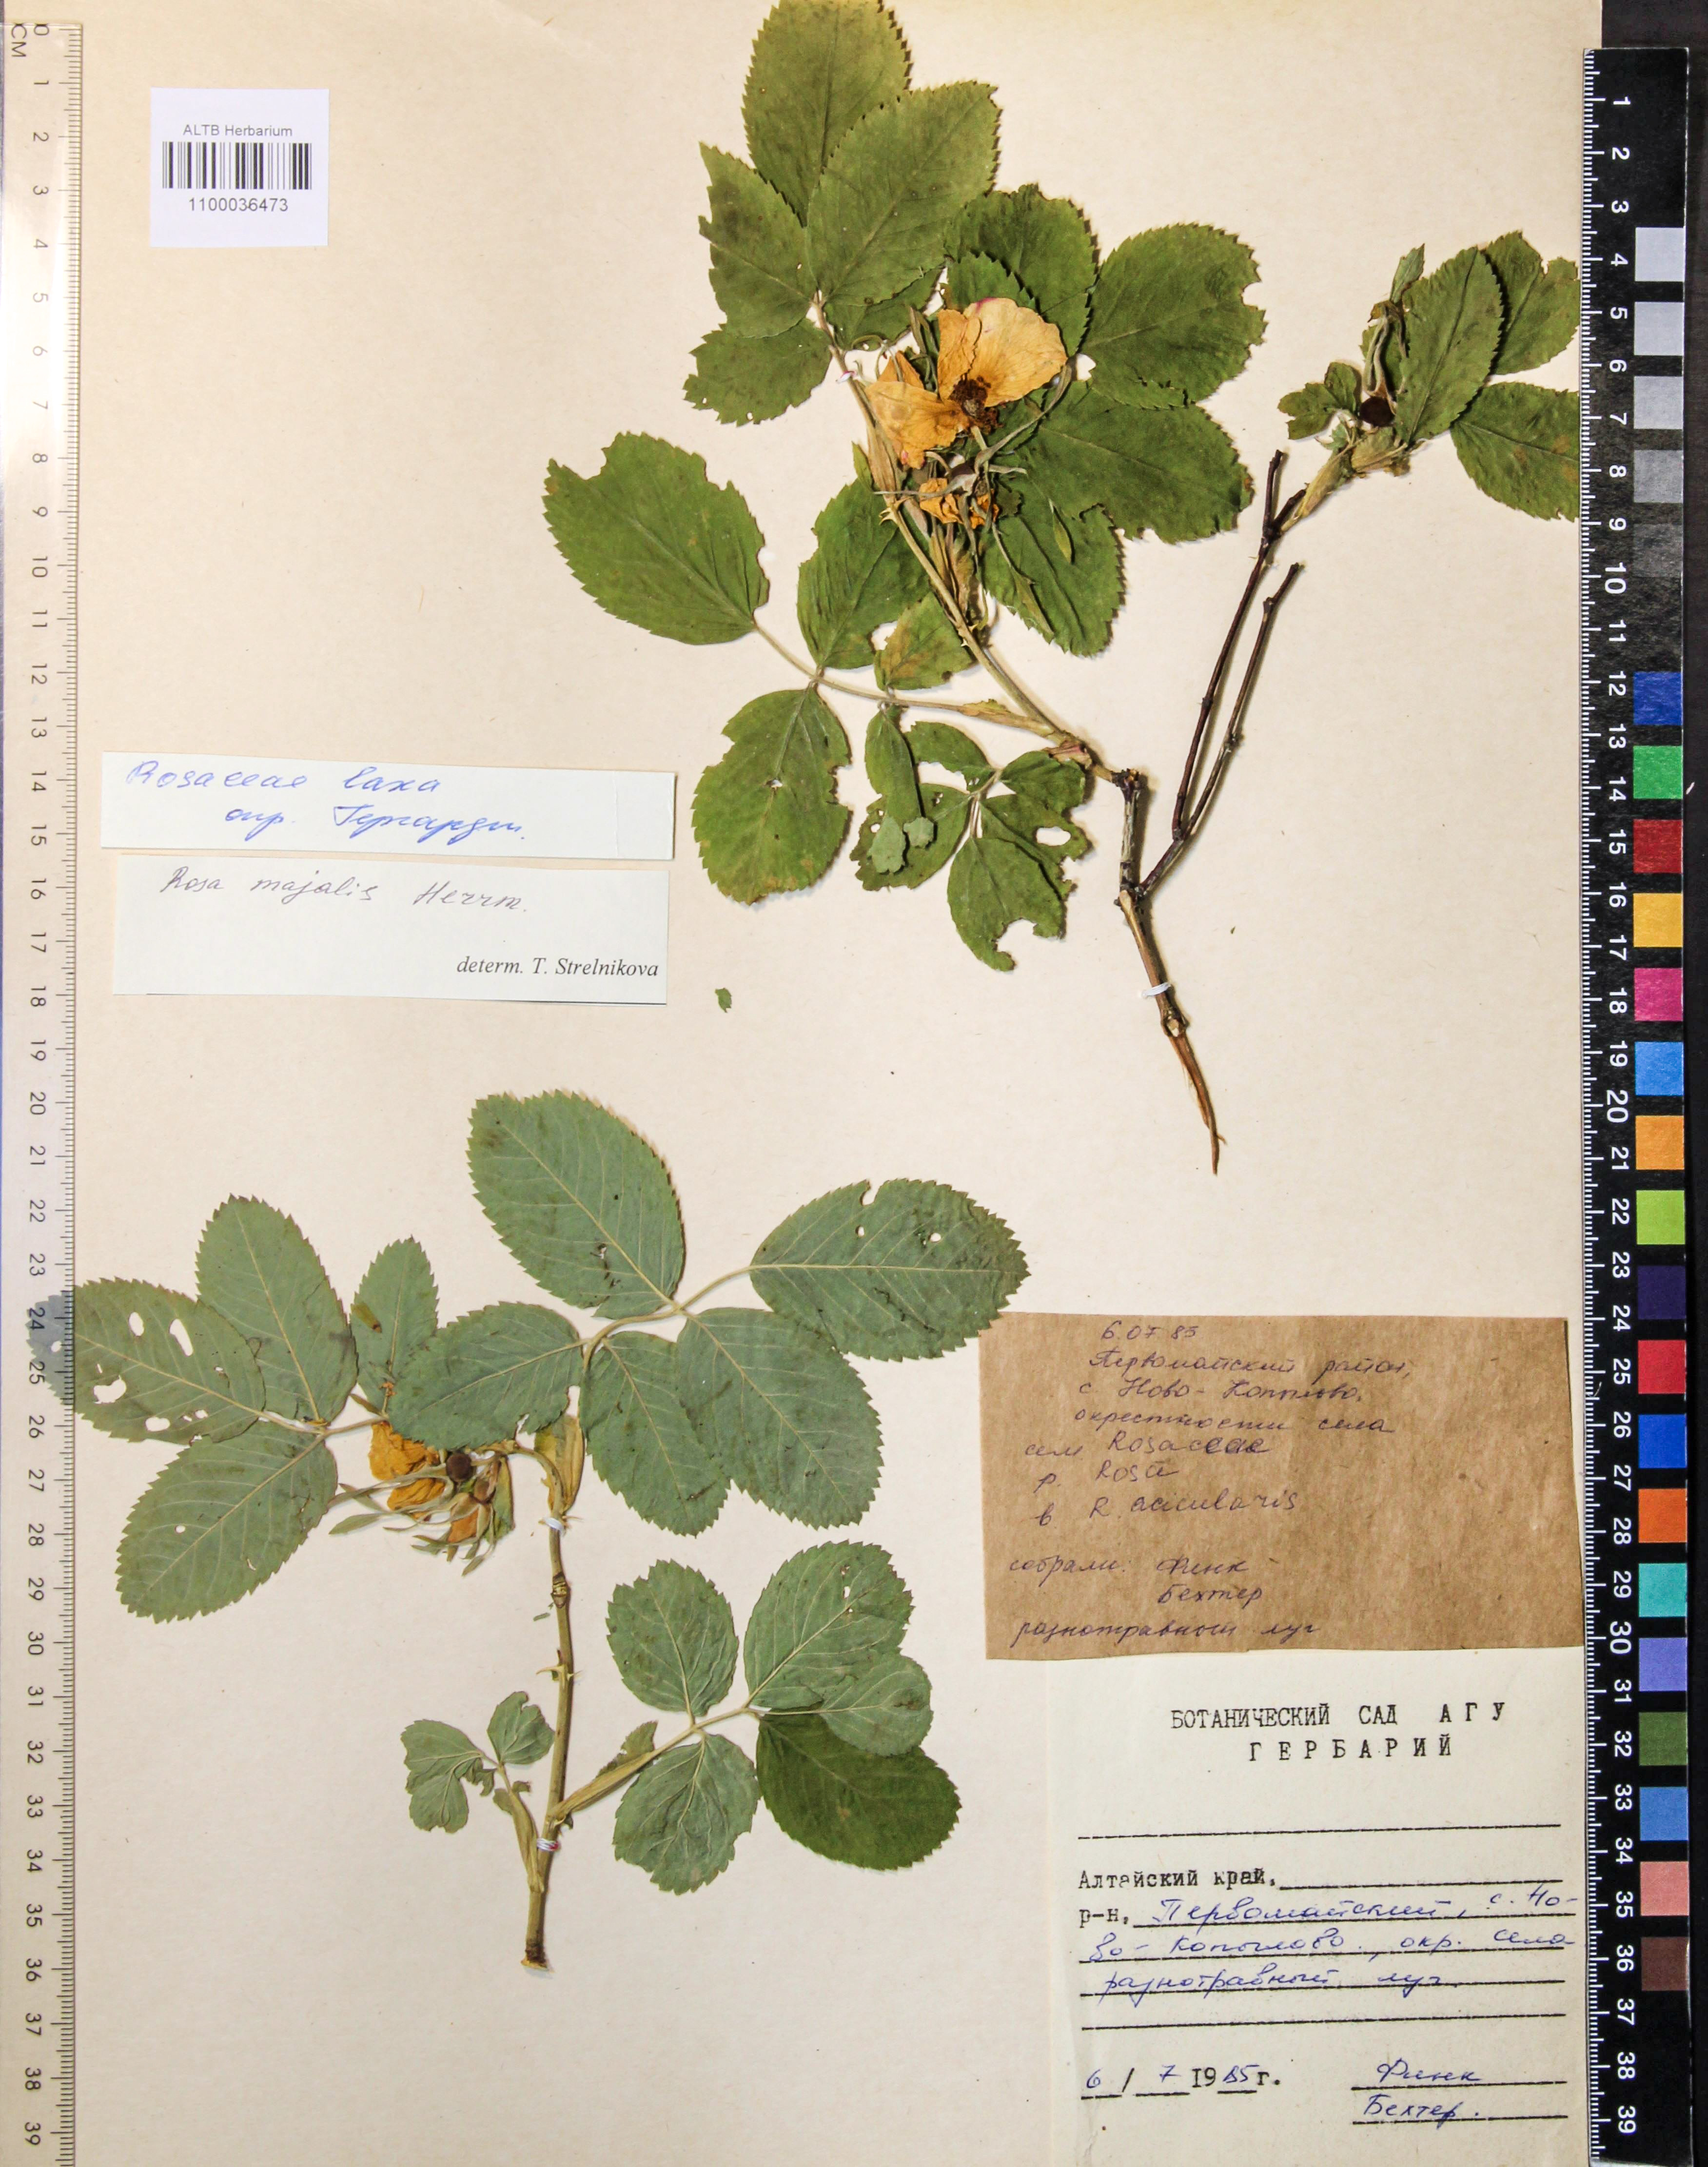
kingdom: Plantae
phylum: Tracheophyta
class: Magnoliopsida
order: Rosales
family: Rosaceae
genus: Rosa
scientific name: Rosa majalis
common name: Cinnamon rose
